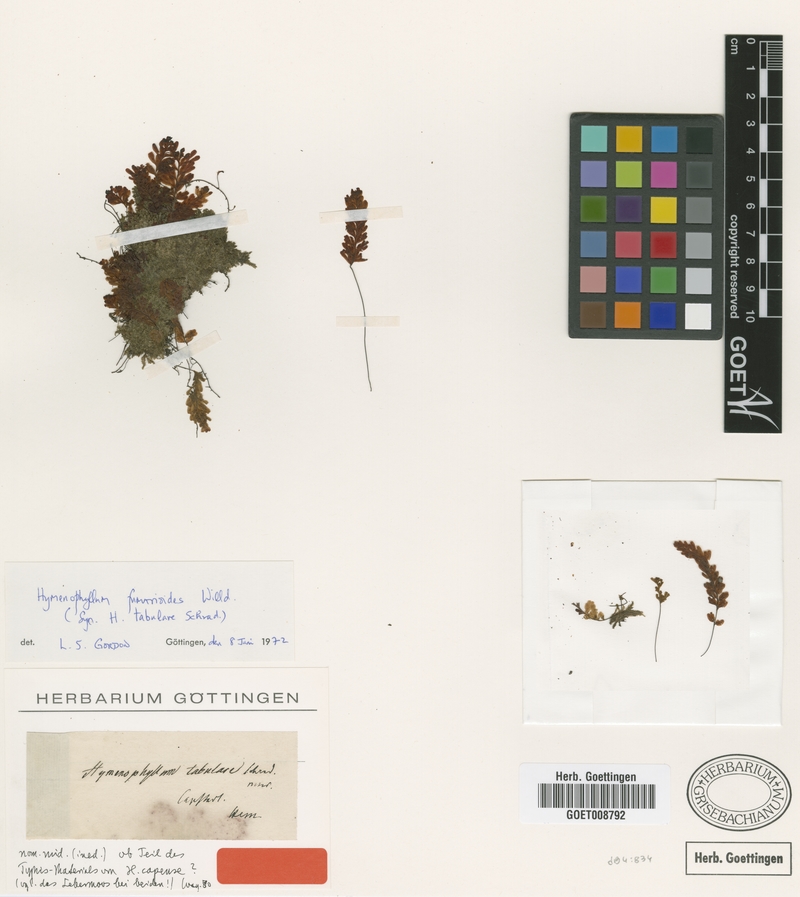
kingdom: Plantae
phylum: Tracheophyta
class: Polypodiopsida
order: Hymenophyllales
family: Hymenophyllaceae
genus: Hymenophyllum
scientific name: Hymenophyllum fumarioides
